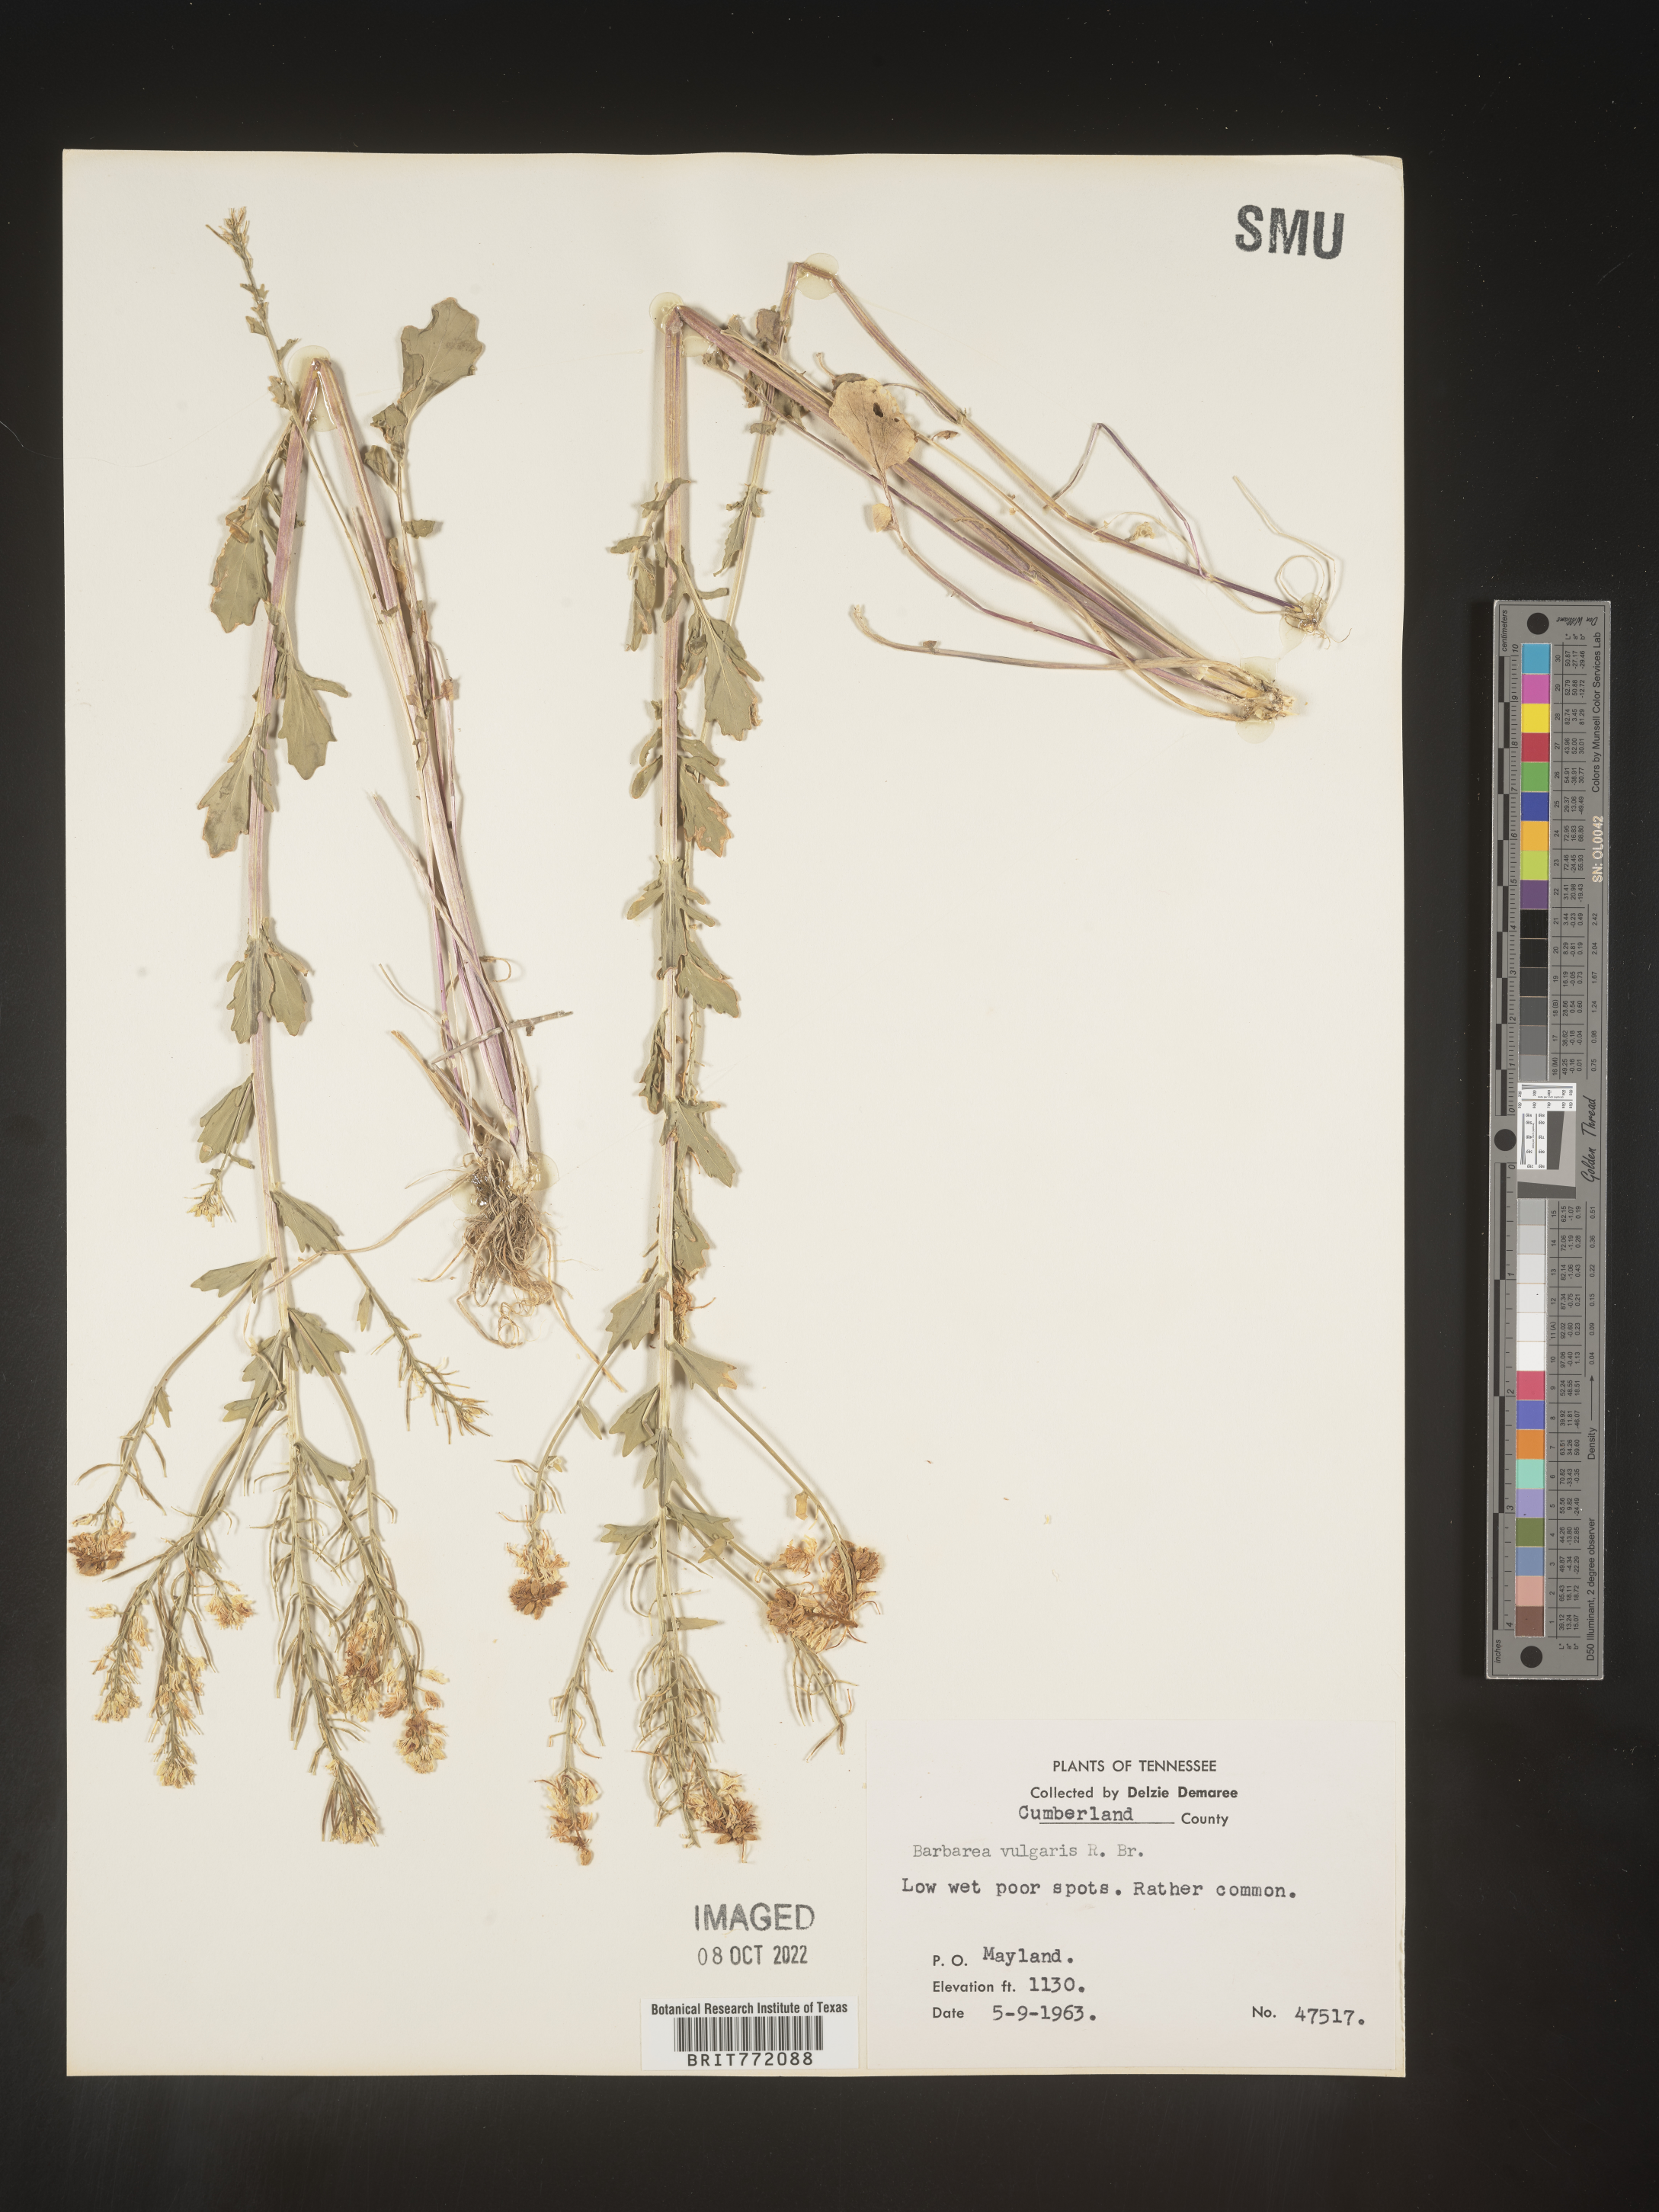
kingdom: Plantae
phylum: Tracheophyta
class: Magnoliopsida
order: Brassicales
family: Brassicaceae
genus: Barbarea
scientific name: Barbarea vulgaris
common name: Cressy-greens
